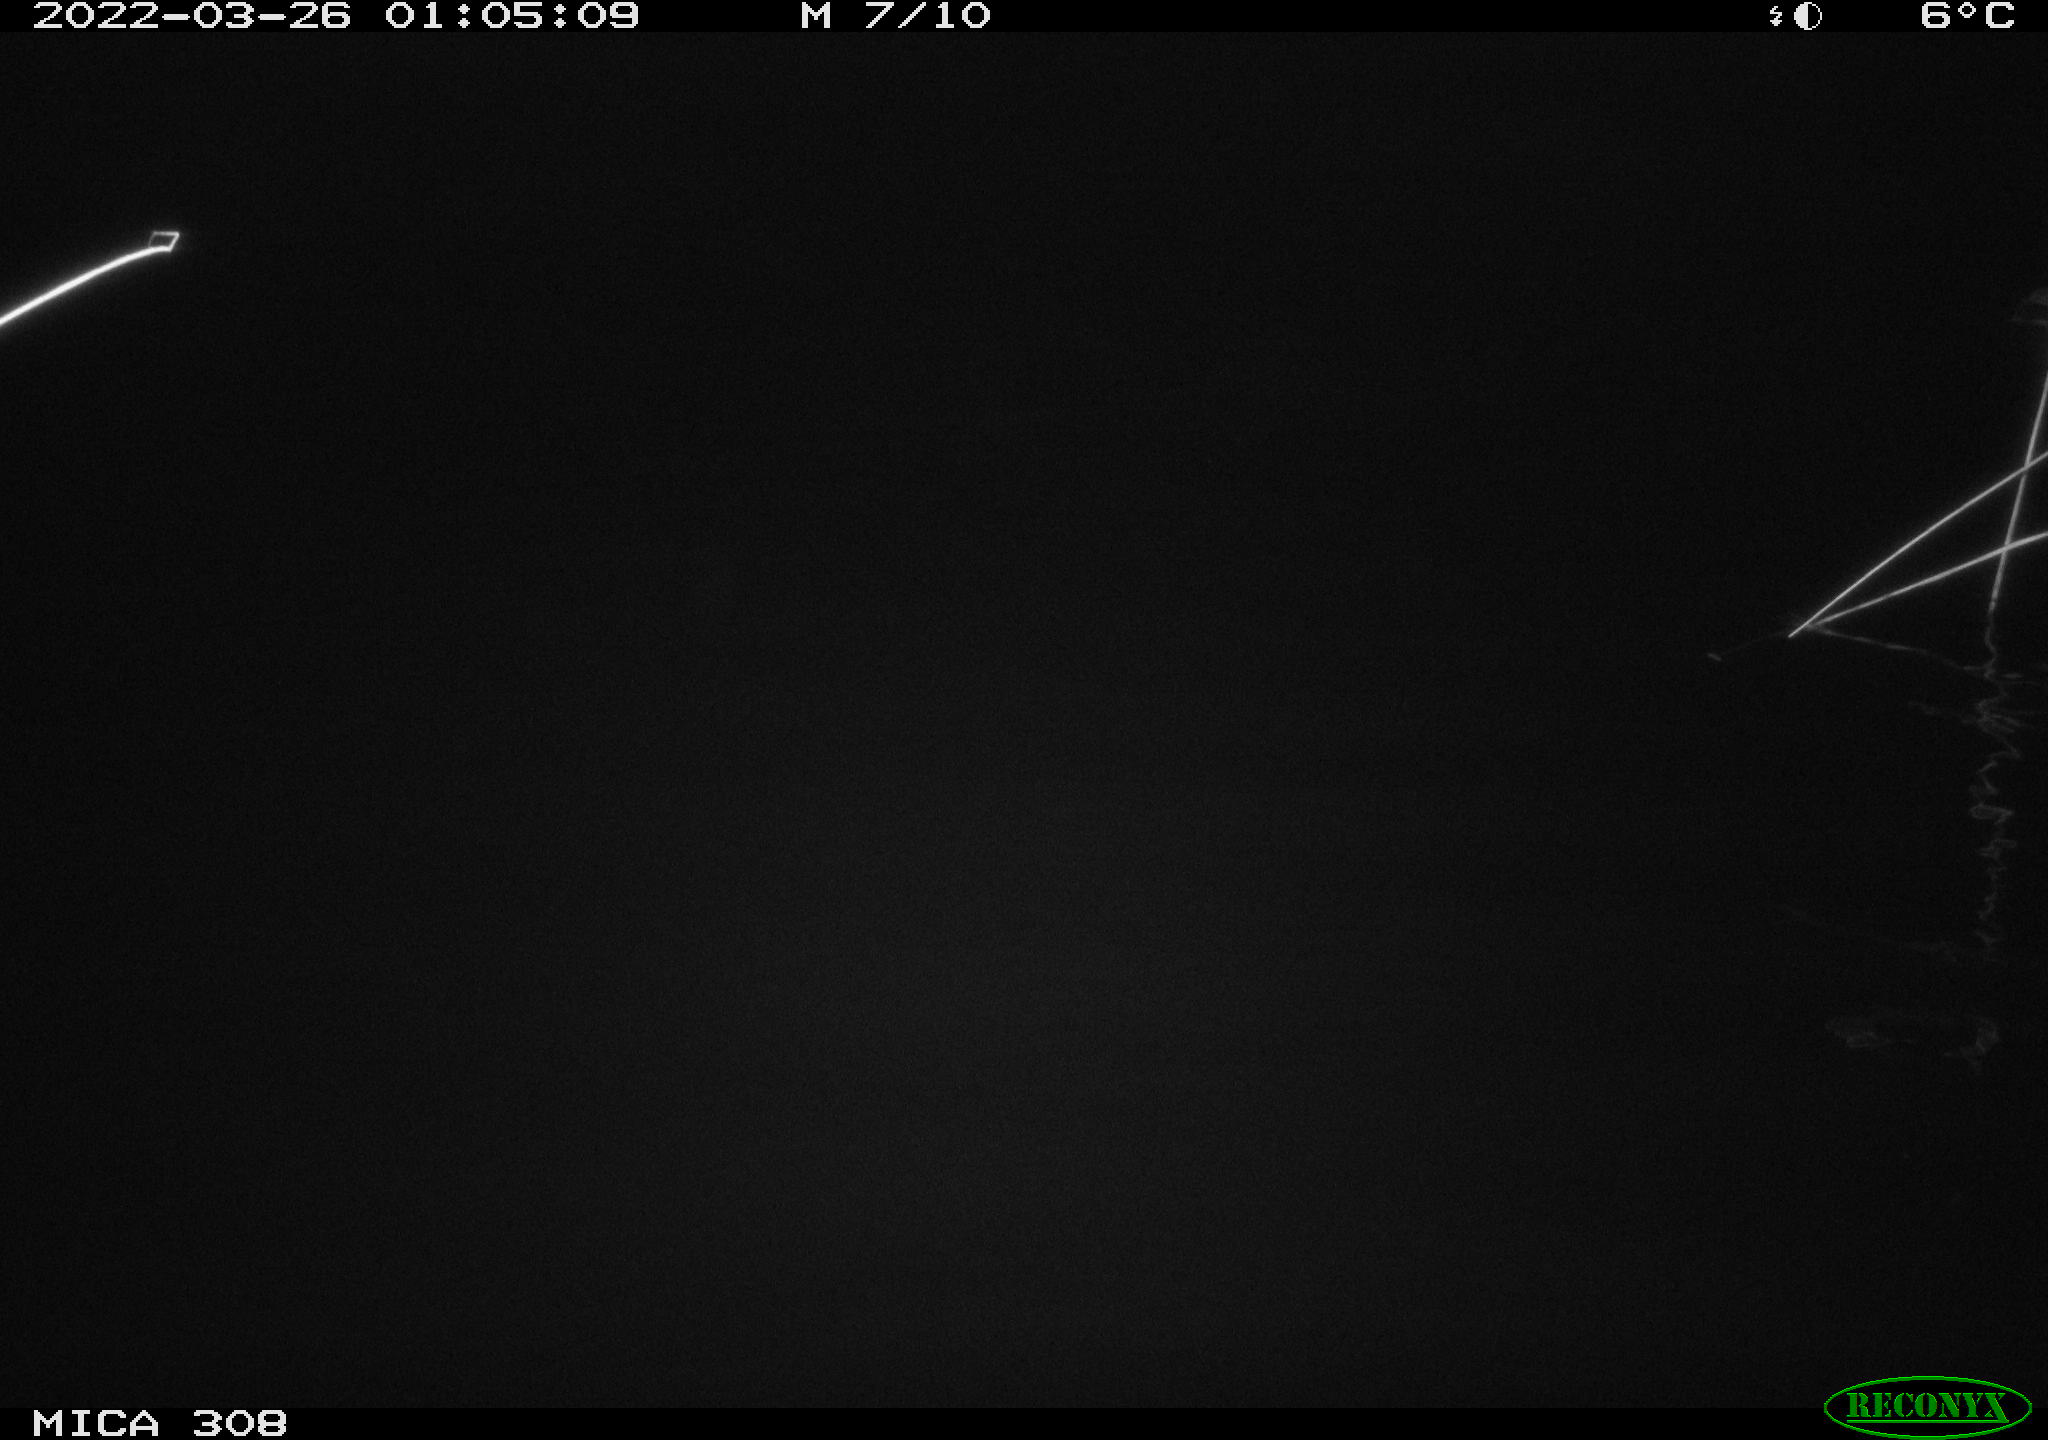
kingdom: Animalia
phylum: Chordata
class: Aves
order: Anseriformes
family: Anatidae
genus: Anas
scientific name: Anas platyrhynchos
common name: Mallard
